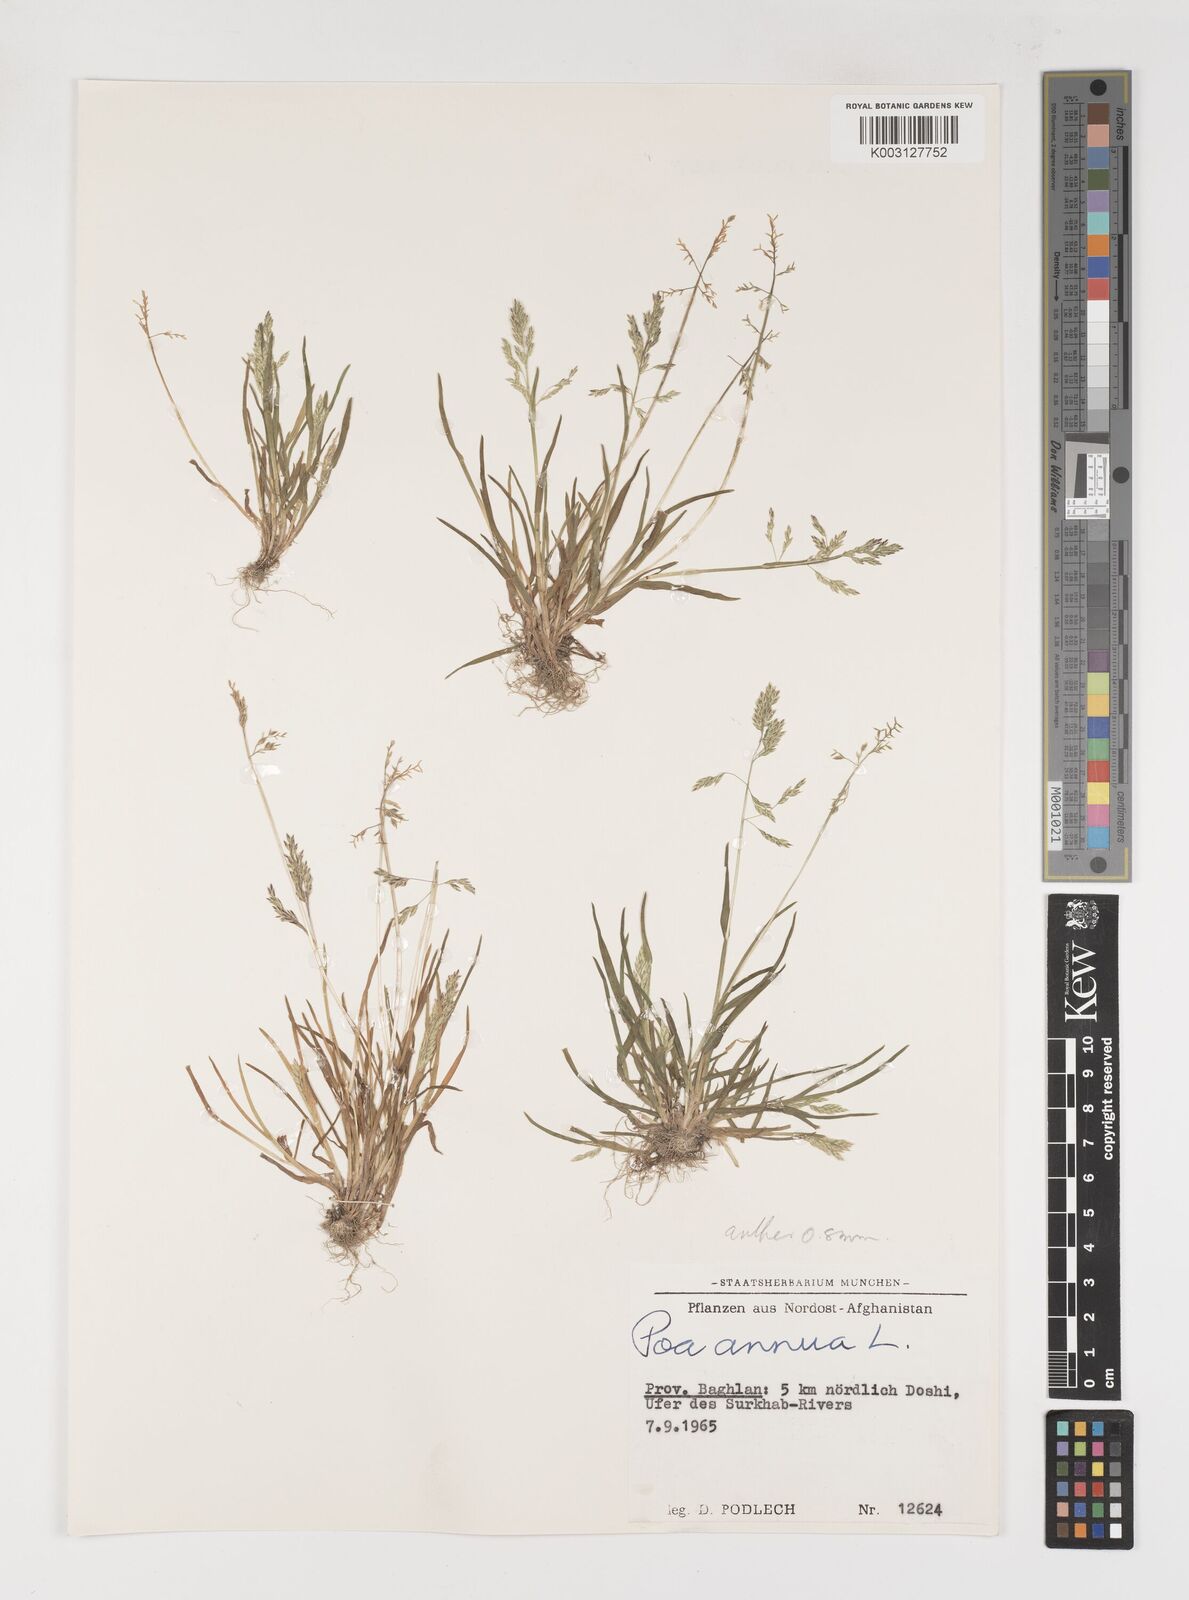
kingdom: Plantae
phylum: Tracheophyta
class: Liliopsida
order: Poales
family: Poaceae
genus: Poa
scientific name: Poa annua
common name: Annual bluegrass
